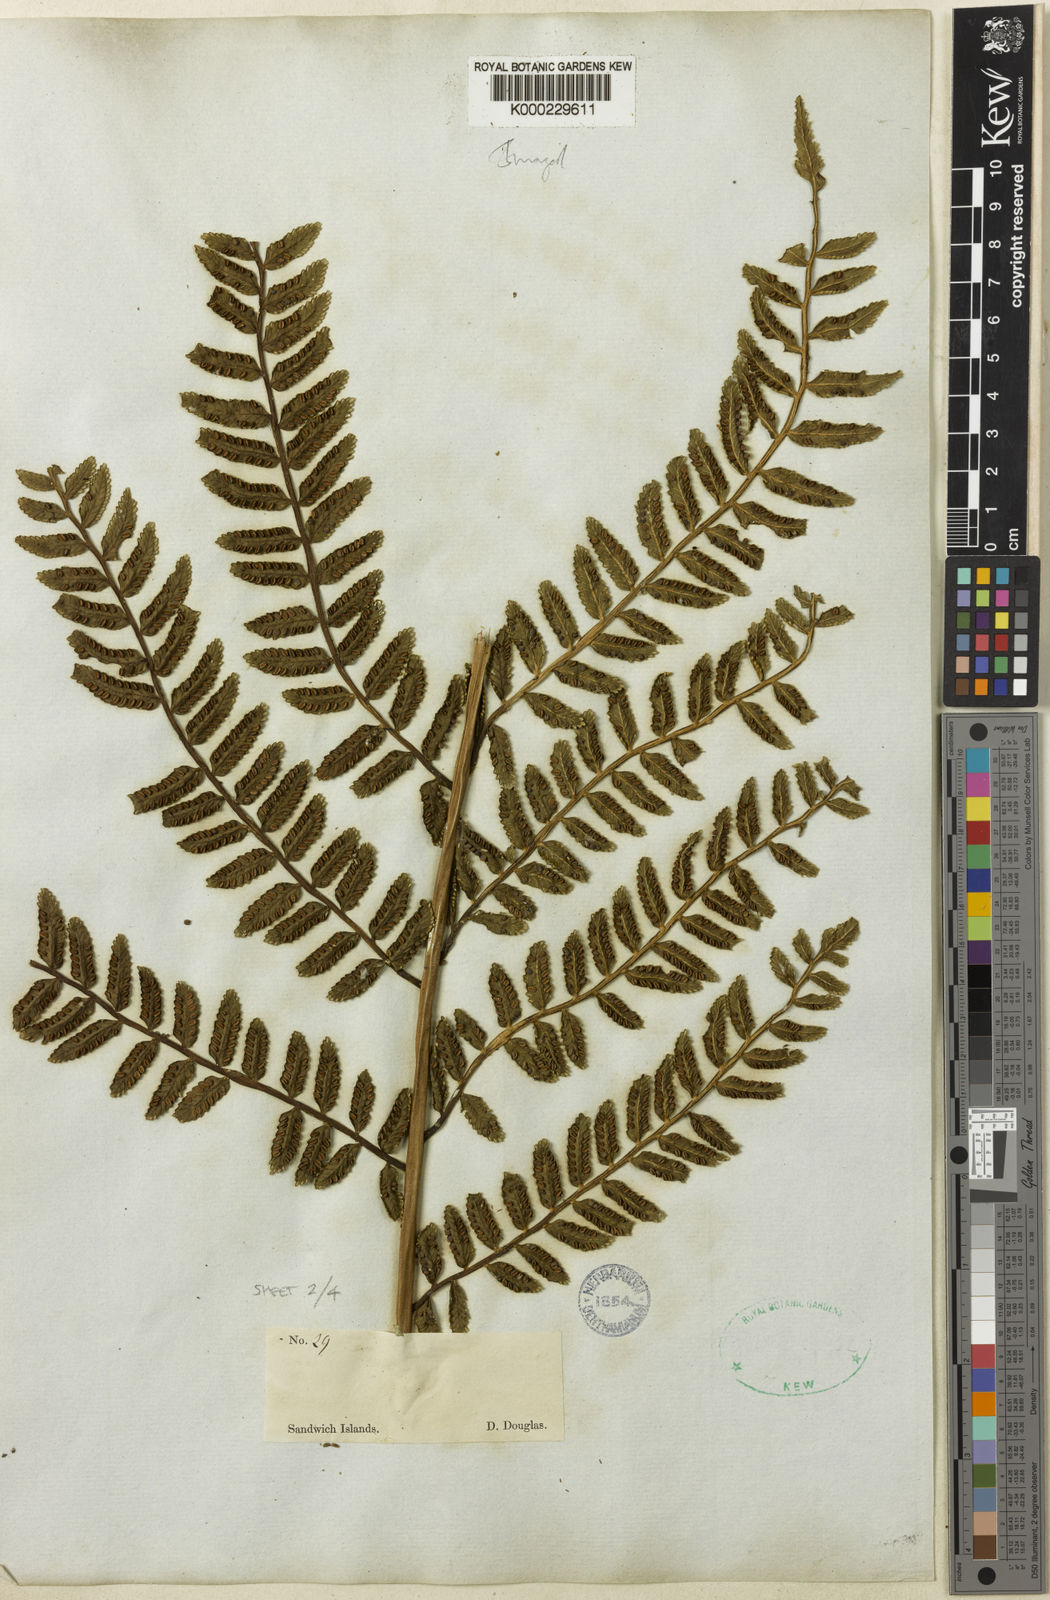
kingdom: Plantae
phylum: Tracheophyta
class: Polypodiopsida
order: Marattiales
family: Marattiaceae
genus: Marattia
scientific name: Marattia douglasii
